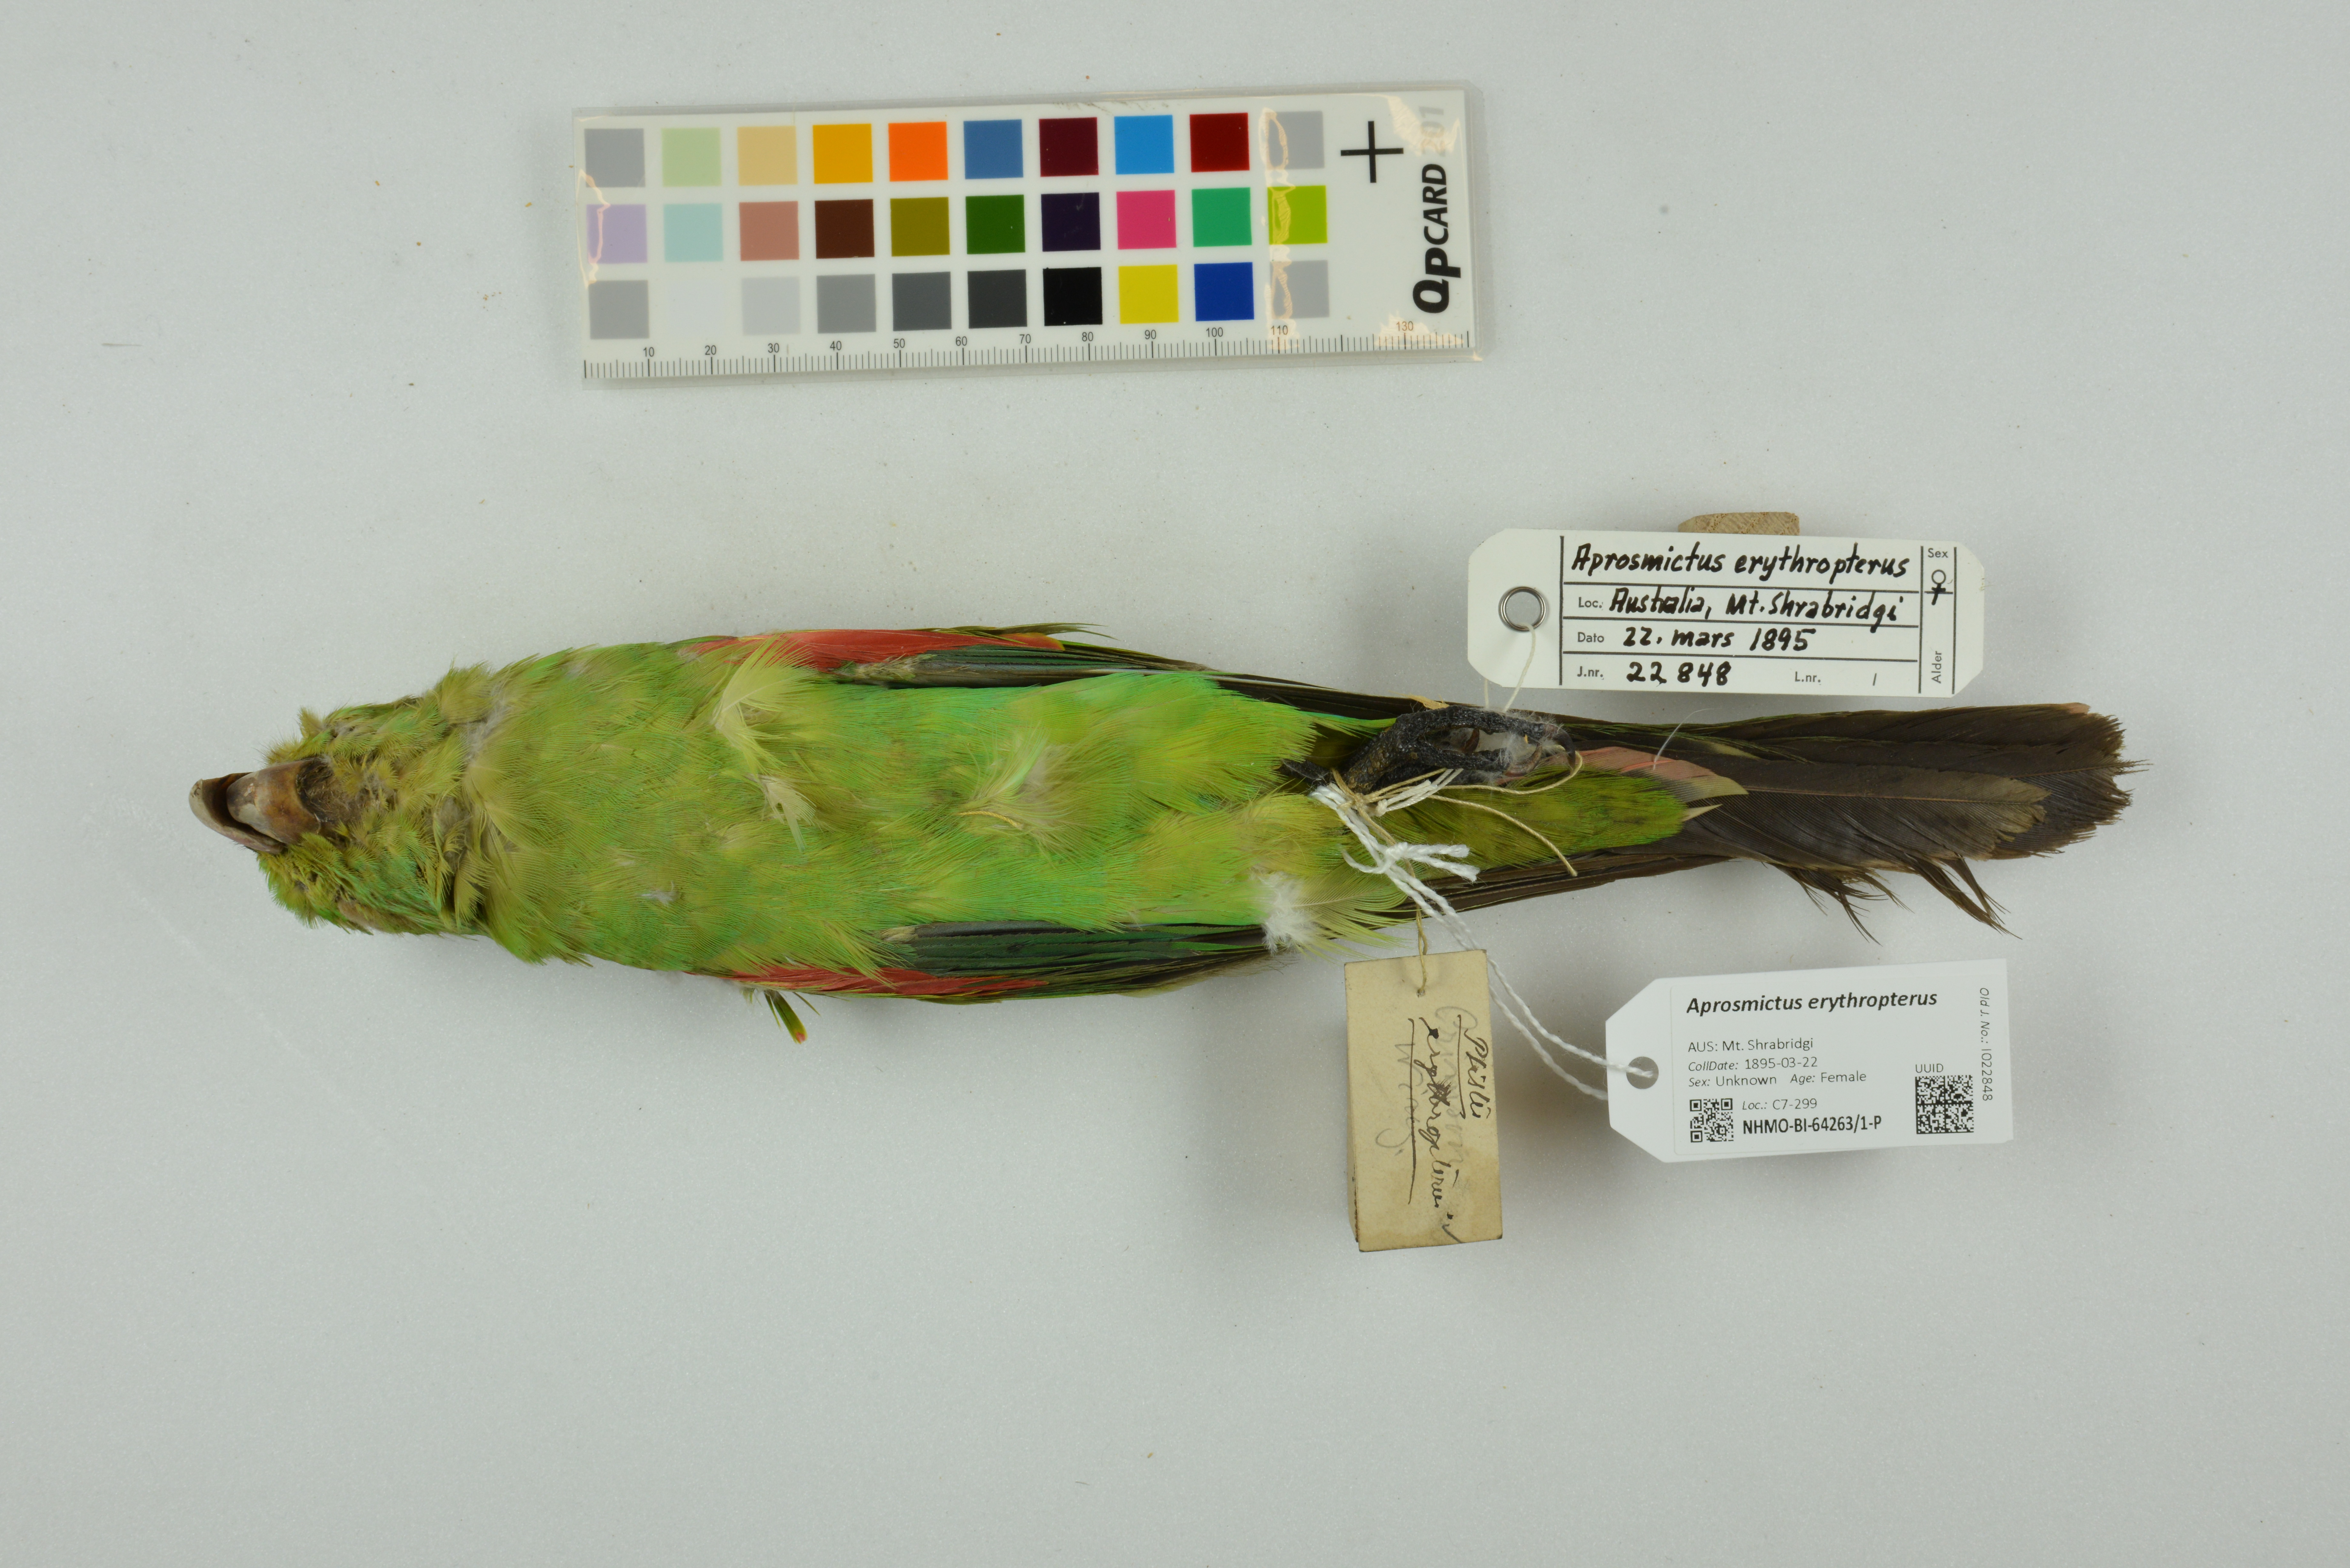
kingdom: Animalia
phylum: Chordata
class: Aves
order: Psittaciformes
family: Psittacidae
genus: Aprosmictus
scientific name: Aprosmictus erythropterus
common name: Red-winged parrot
